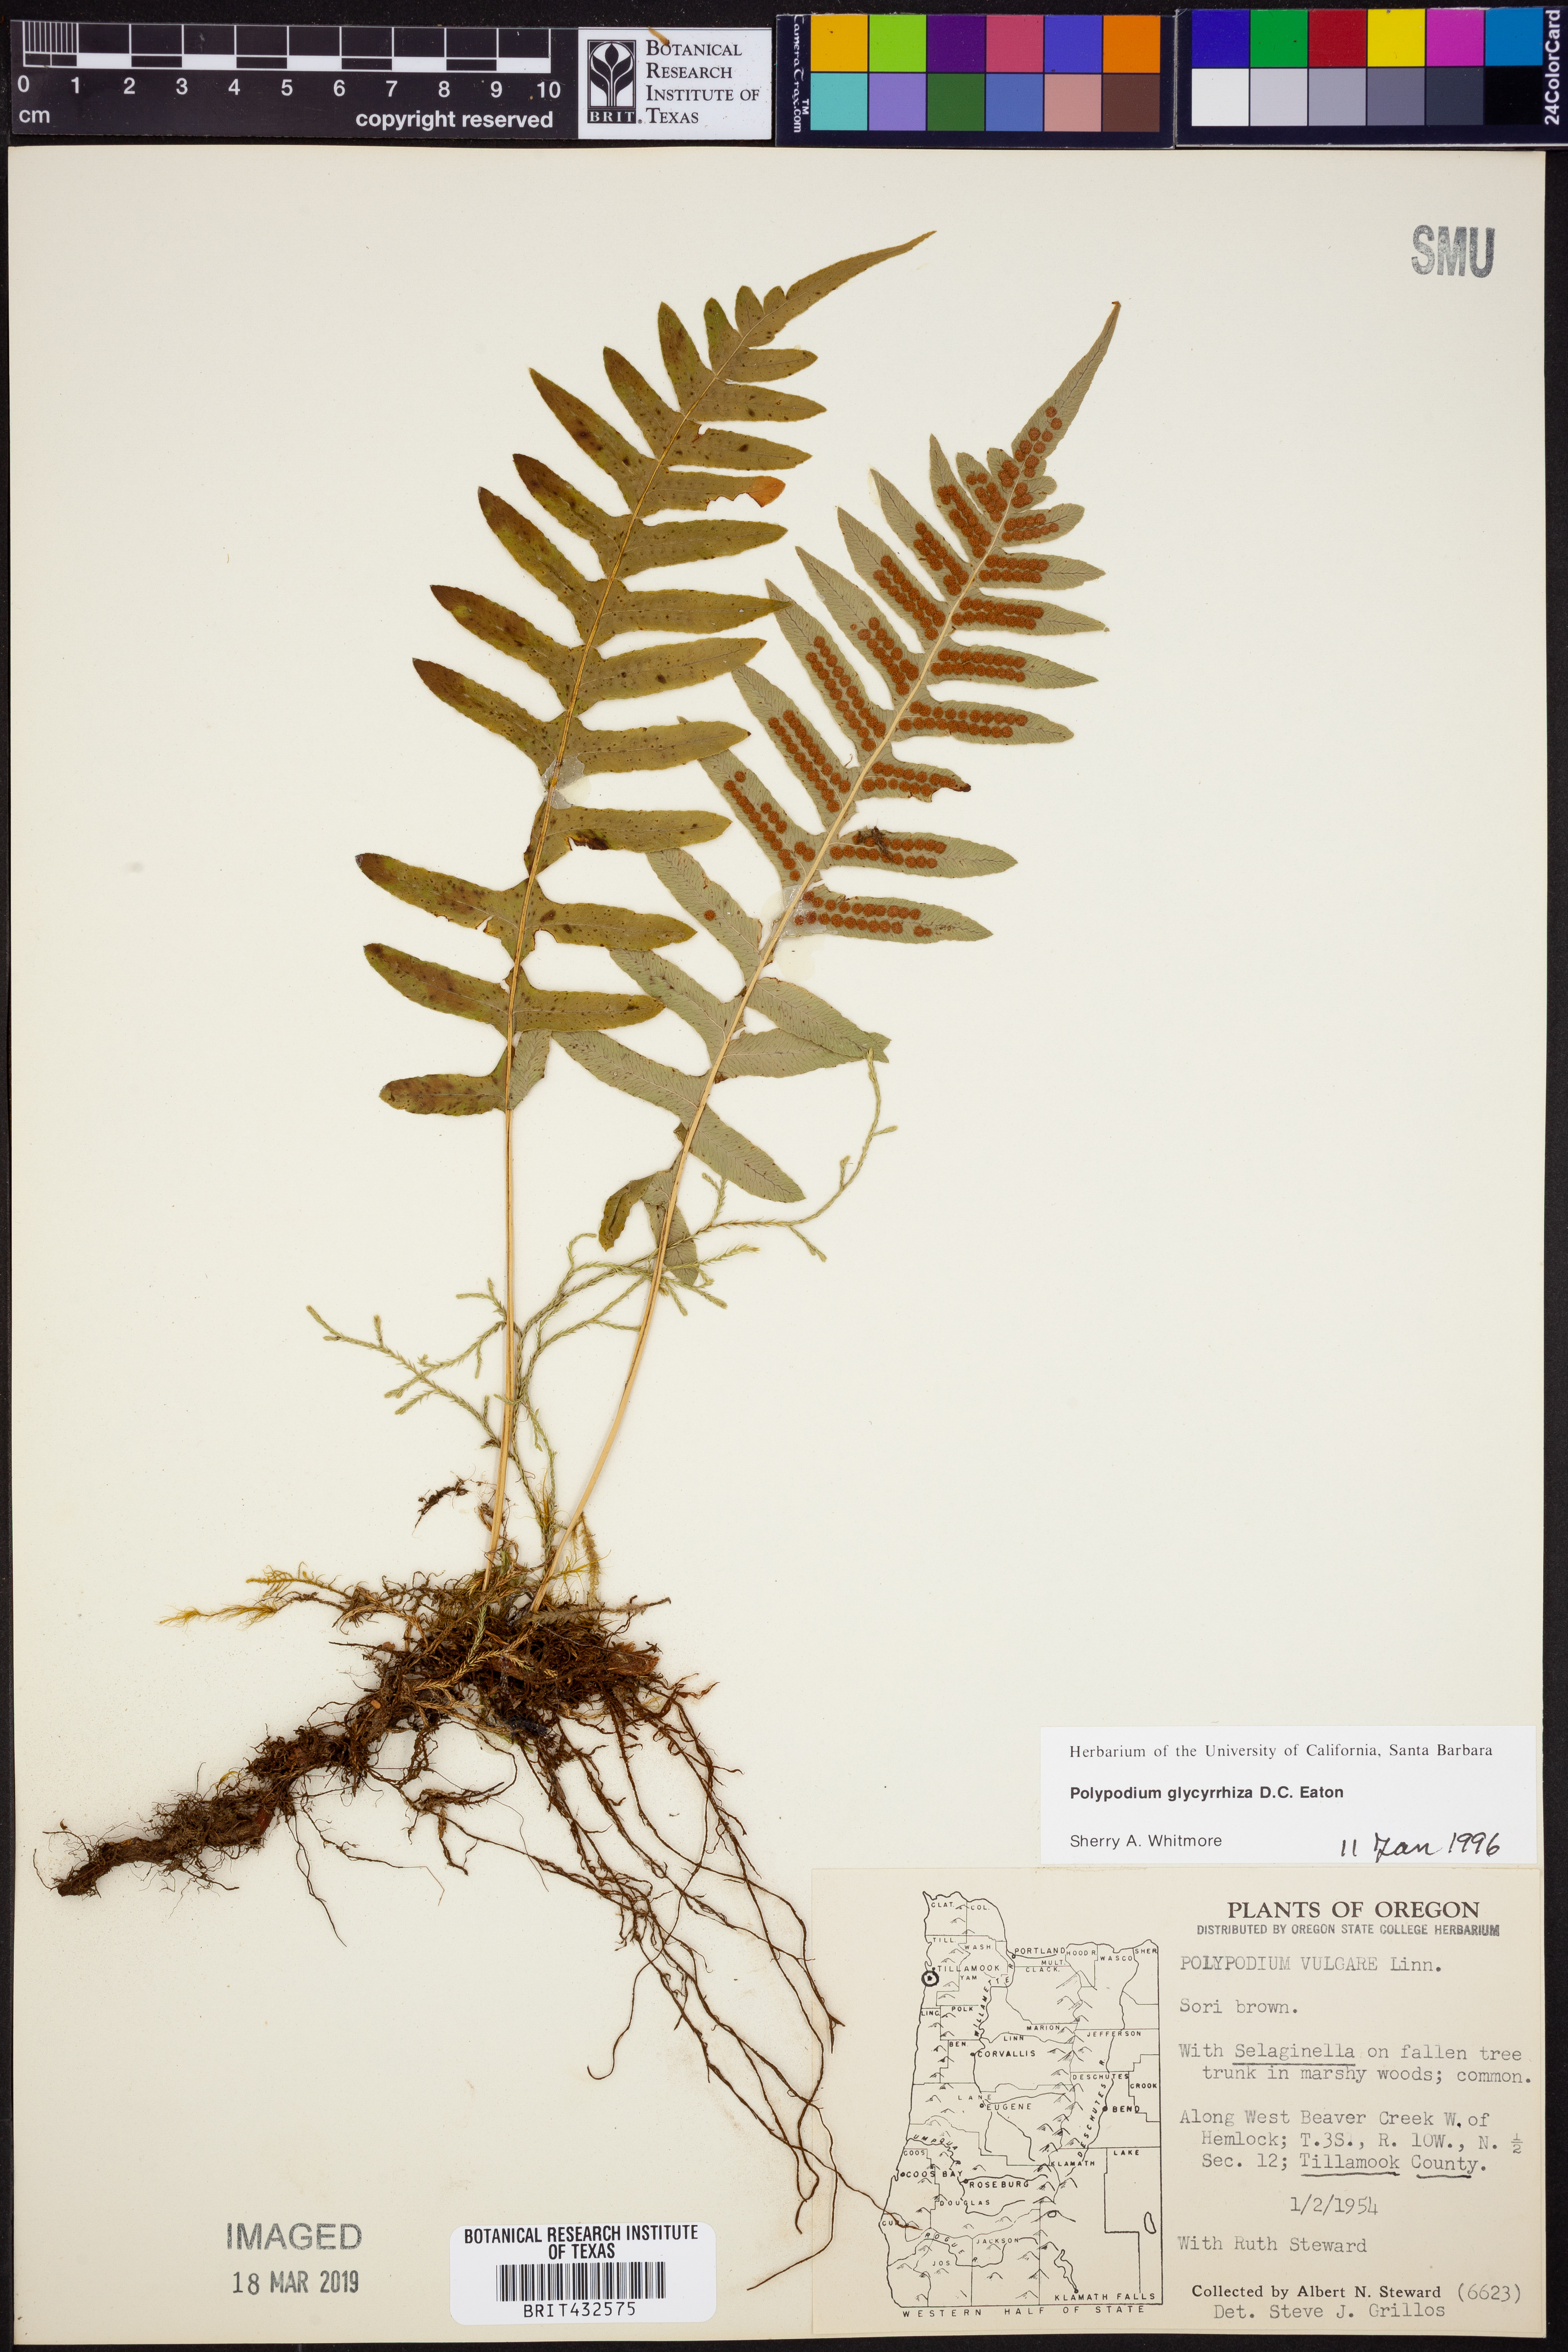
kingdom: Plantae
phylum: Tracheophyta
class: Polypodiopsida
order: Polypodiales
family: Polypodiaceae
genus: Polypodium
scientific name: Polypodium glycyrrhiza
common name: Licorice fern
